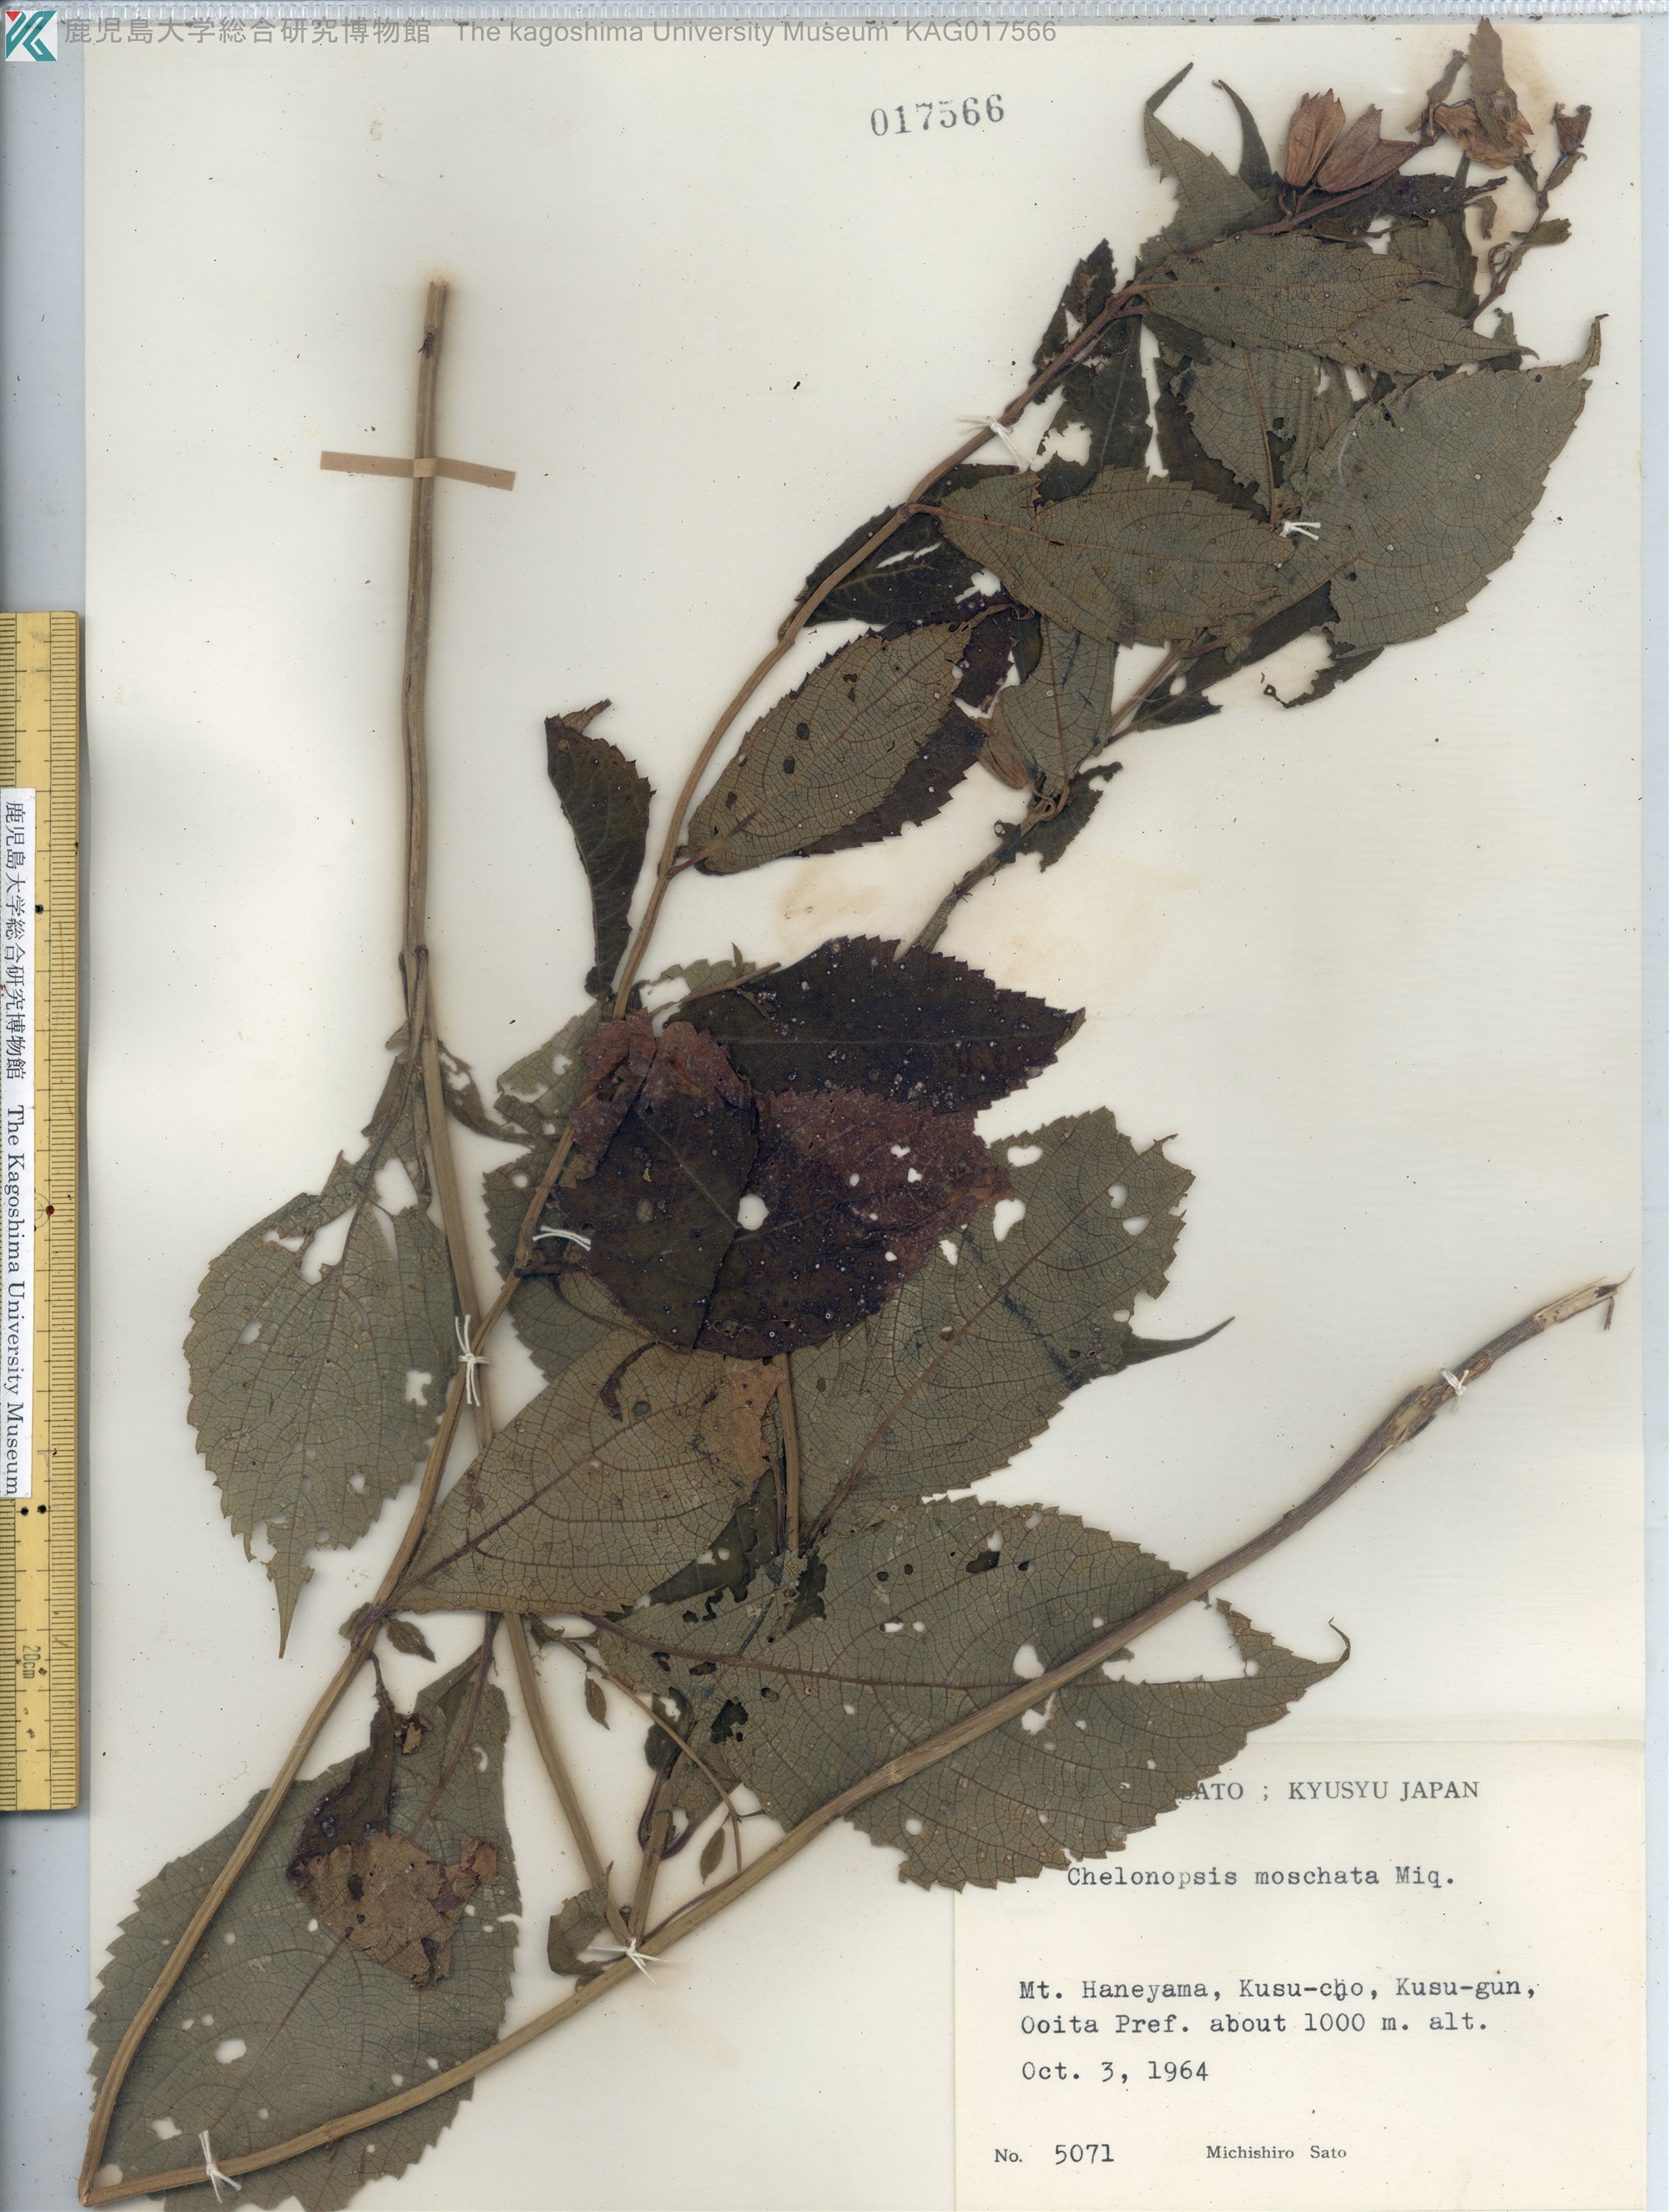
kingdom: Plantae
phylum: Tracheophyta
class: Magnoliopsida
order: Lamiales
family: Lamiaceae
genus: Chelonopsis
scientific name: Chelonopsis moschata
